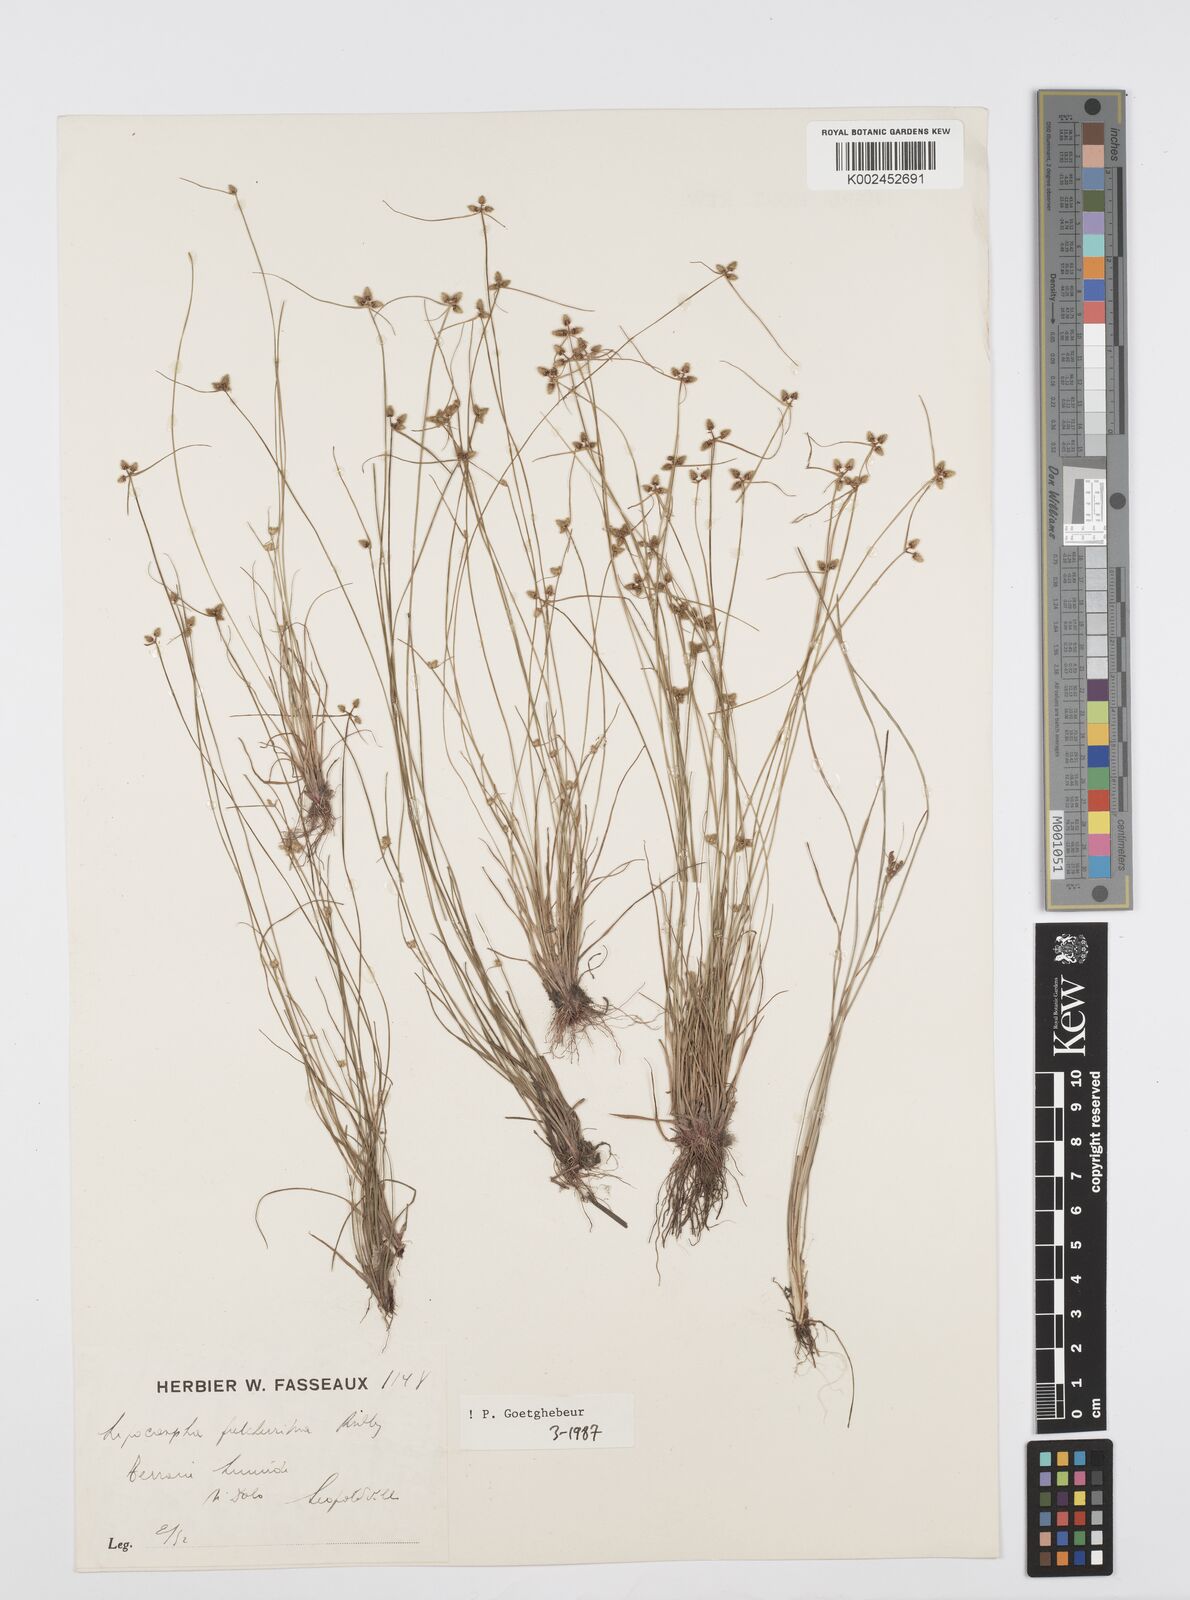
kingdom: Plantae
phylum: Tracheophyta
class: Liliopsida
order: Poales
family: Cyperaceae
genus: Cyperus
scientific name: Cyperus persquarrosus
